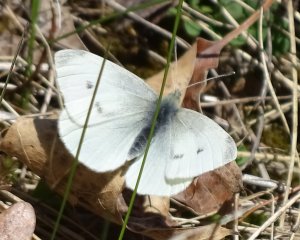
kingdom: Animalia
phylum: Arthropoda
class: Insecta
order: Lepidoptera
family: Pieridae
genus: Pieris
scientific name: Pieris rapae
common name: Cabbage White
